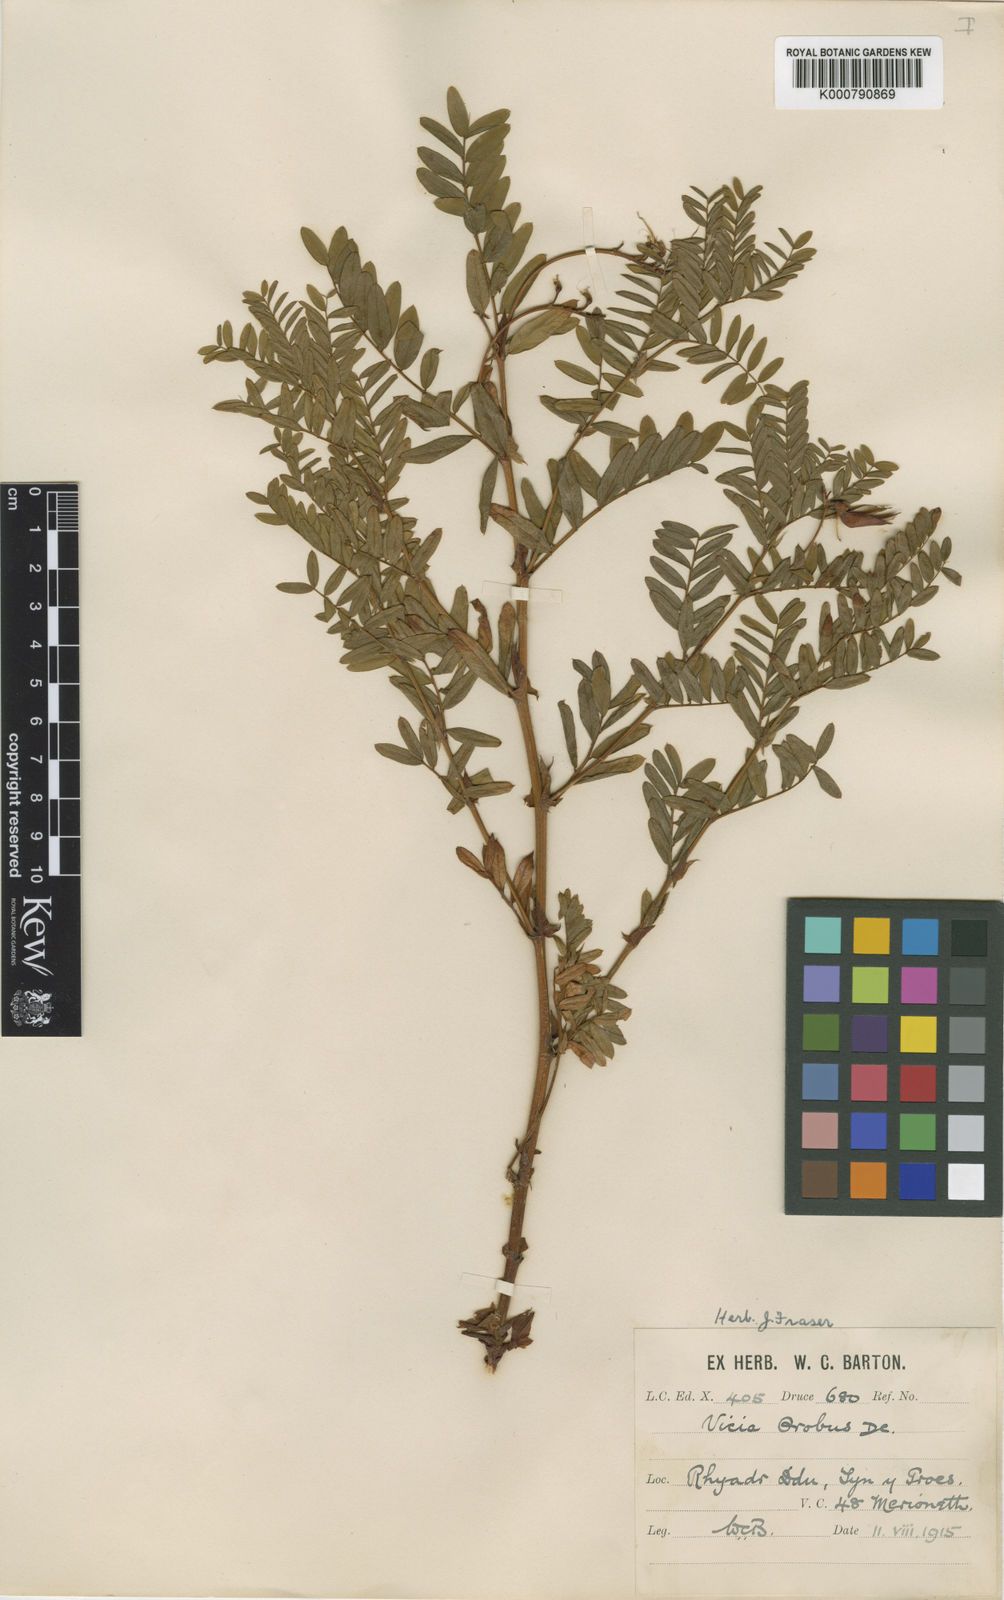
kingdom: Plantae
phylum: Tracheophyta
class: Magnoliopsida
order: Fabales
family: Fabaceae
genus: Vicia
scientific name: Vicia orobus
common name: Wood bitter-vetch
